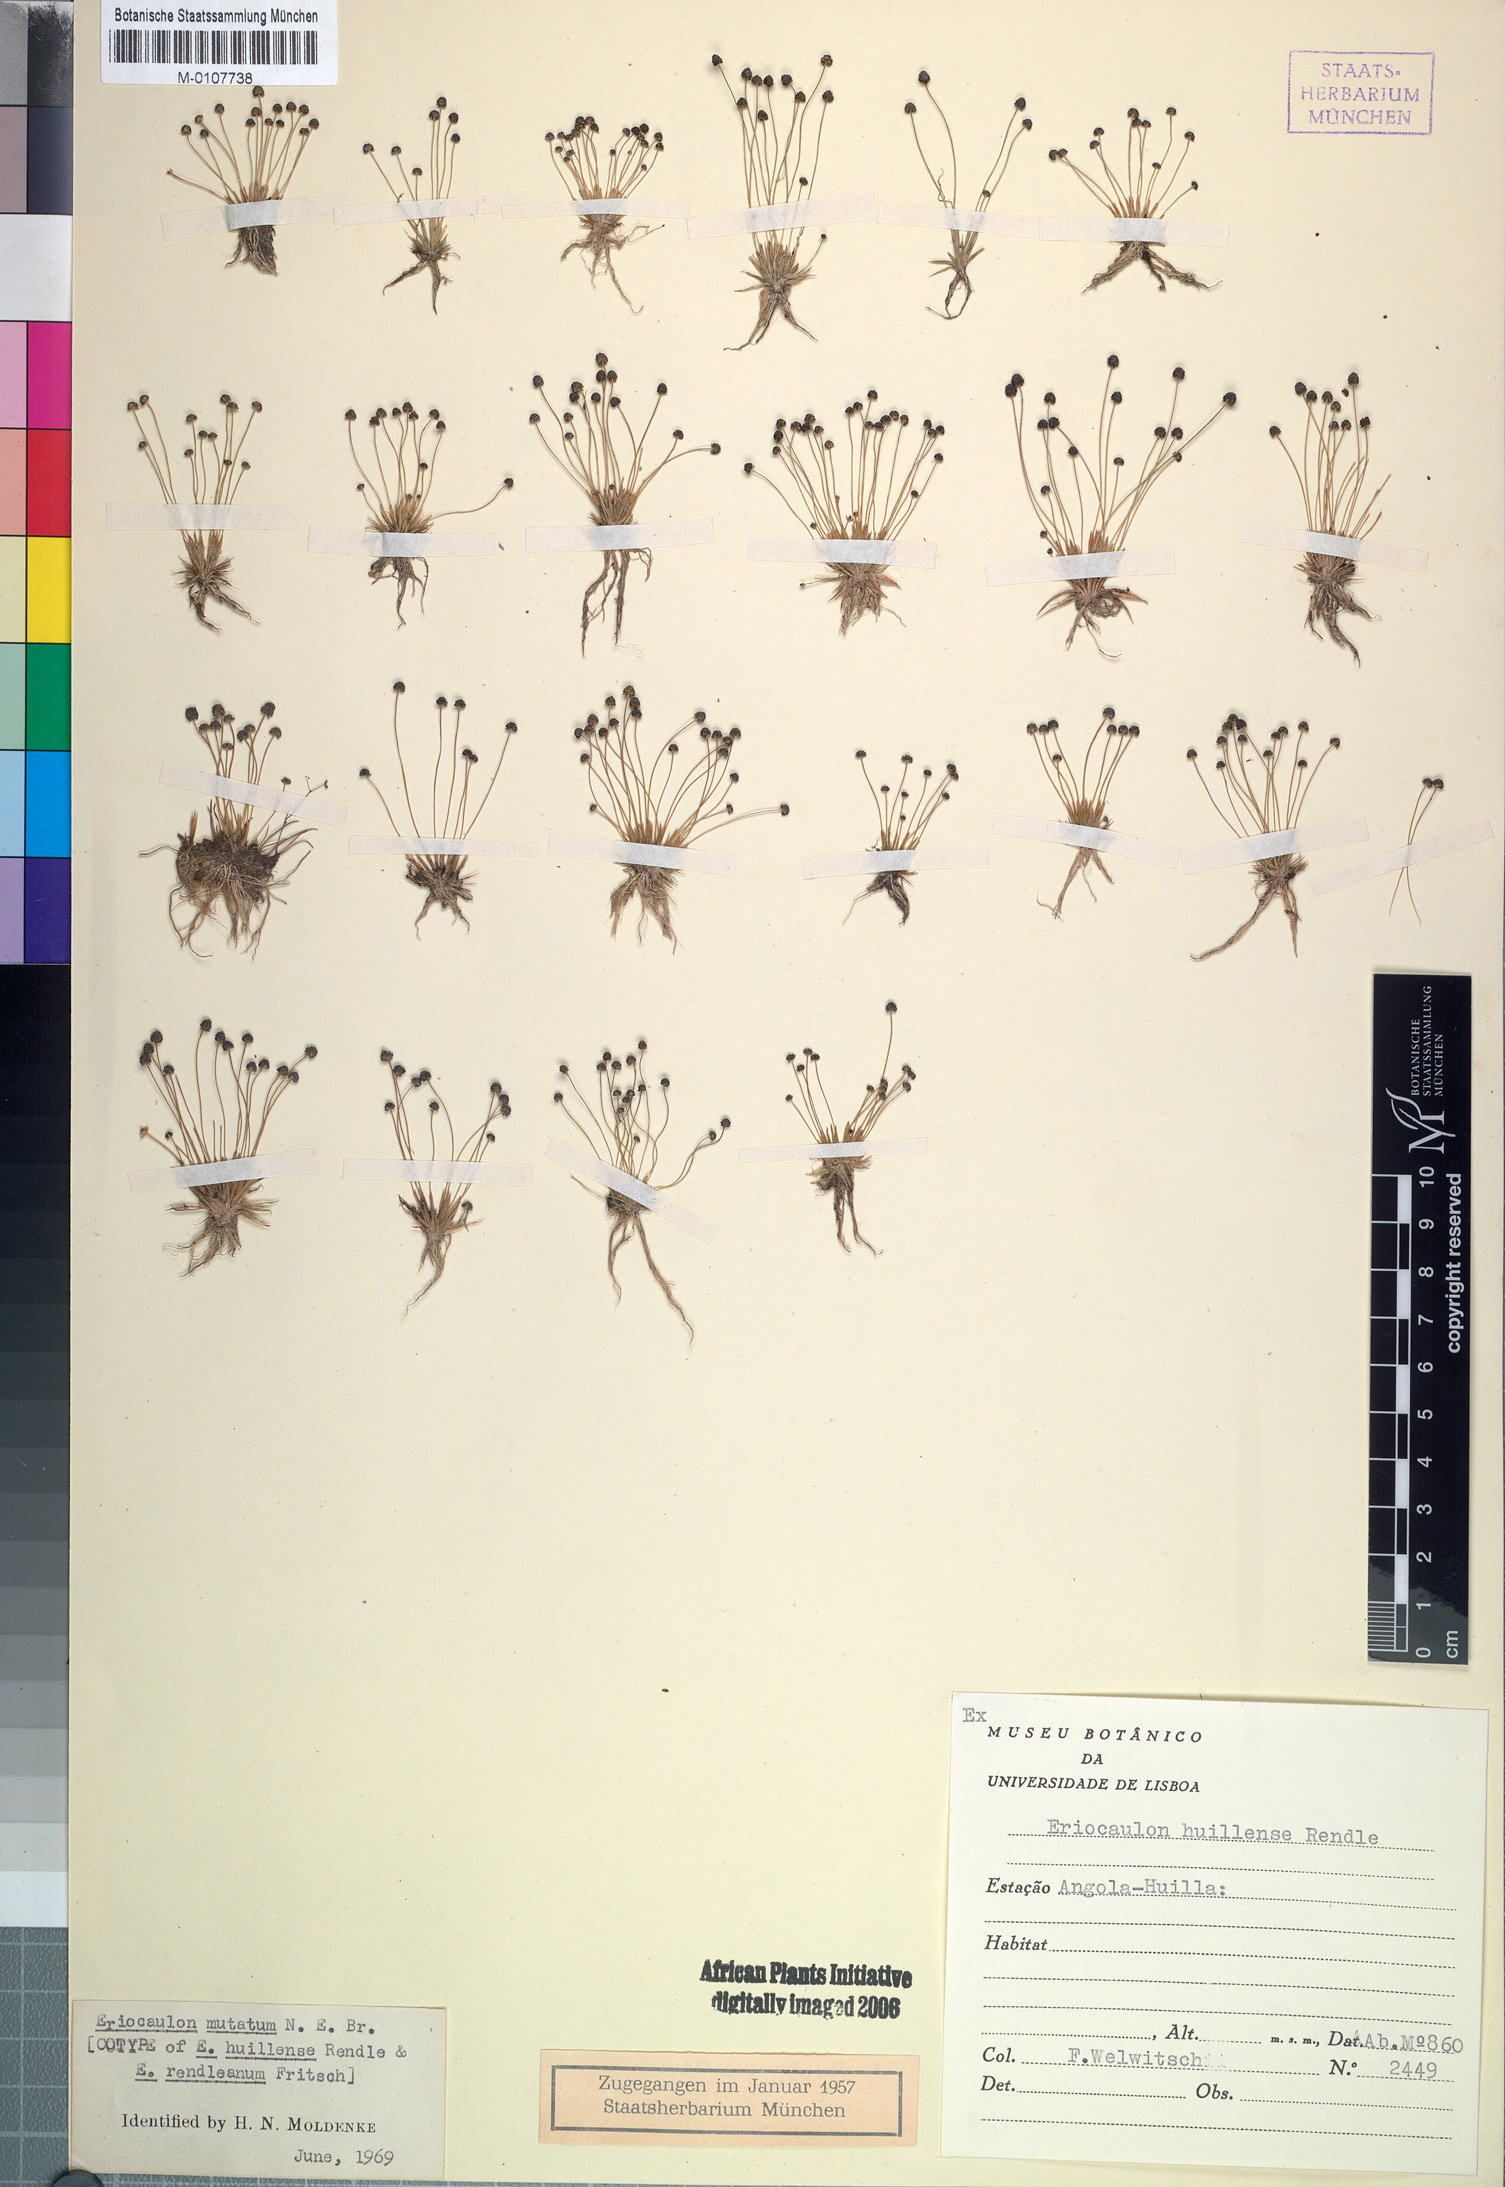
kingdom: Plantae
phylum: Tracheophyta
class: Liliopsida
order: Poales
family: Eriocaulaceae
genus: Eriocaulon
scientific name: Eriocaulon mutatum
